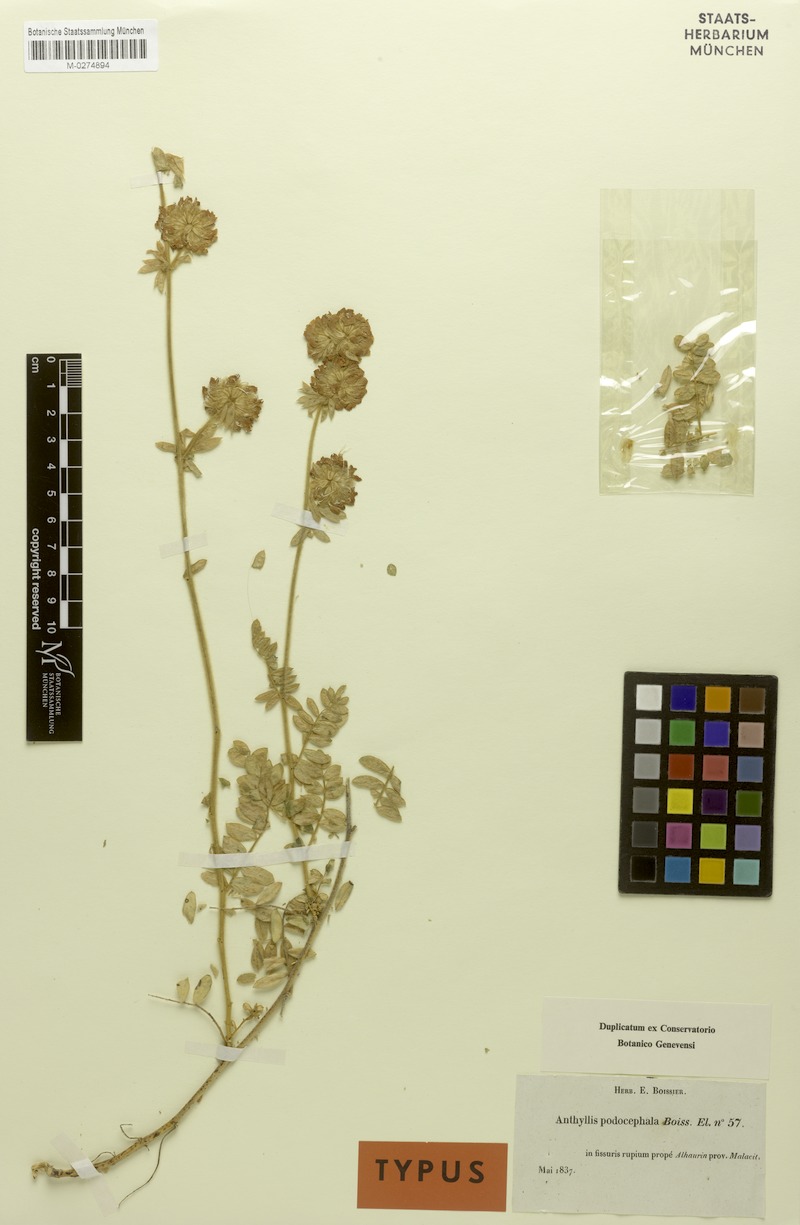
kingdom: Plantae
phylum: Tracheophyta
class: Magnoliopsida
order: Fabales
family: Fabaceae
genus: Anthyllis
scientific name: Anthyllis polycephala
